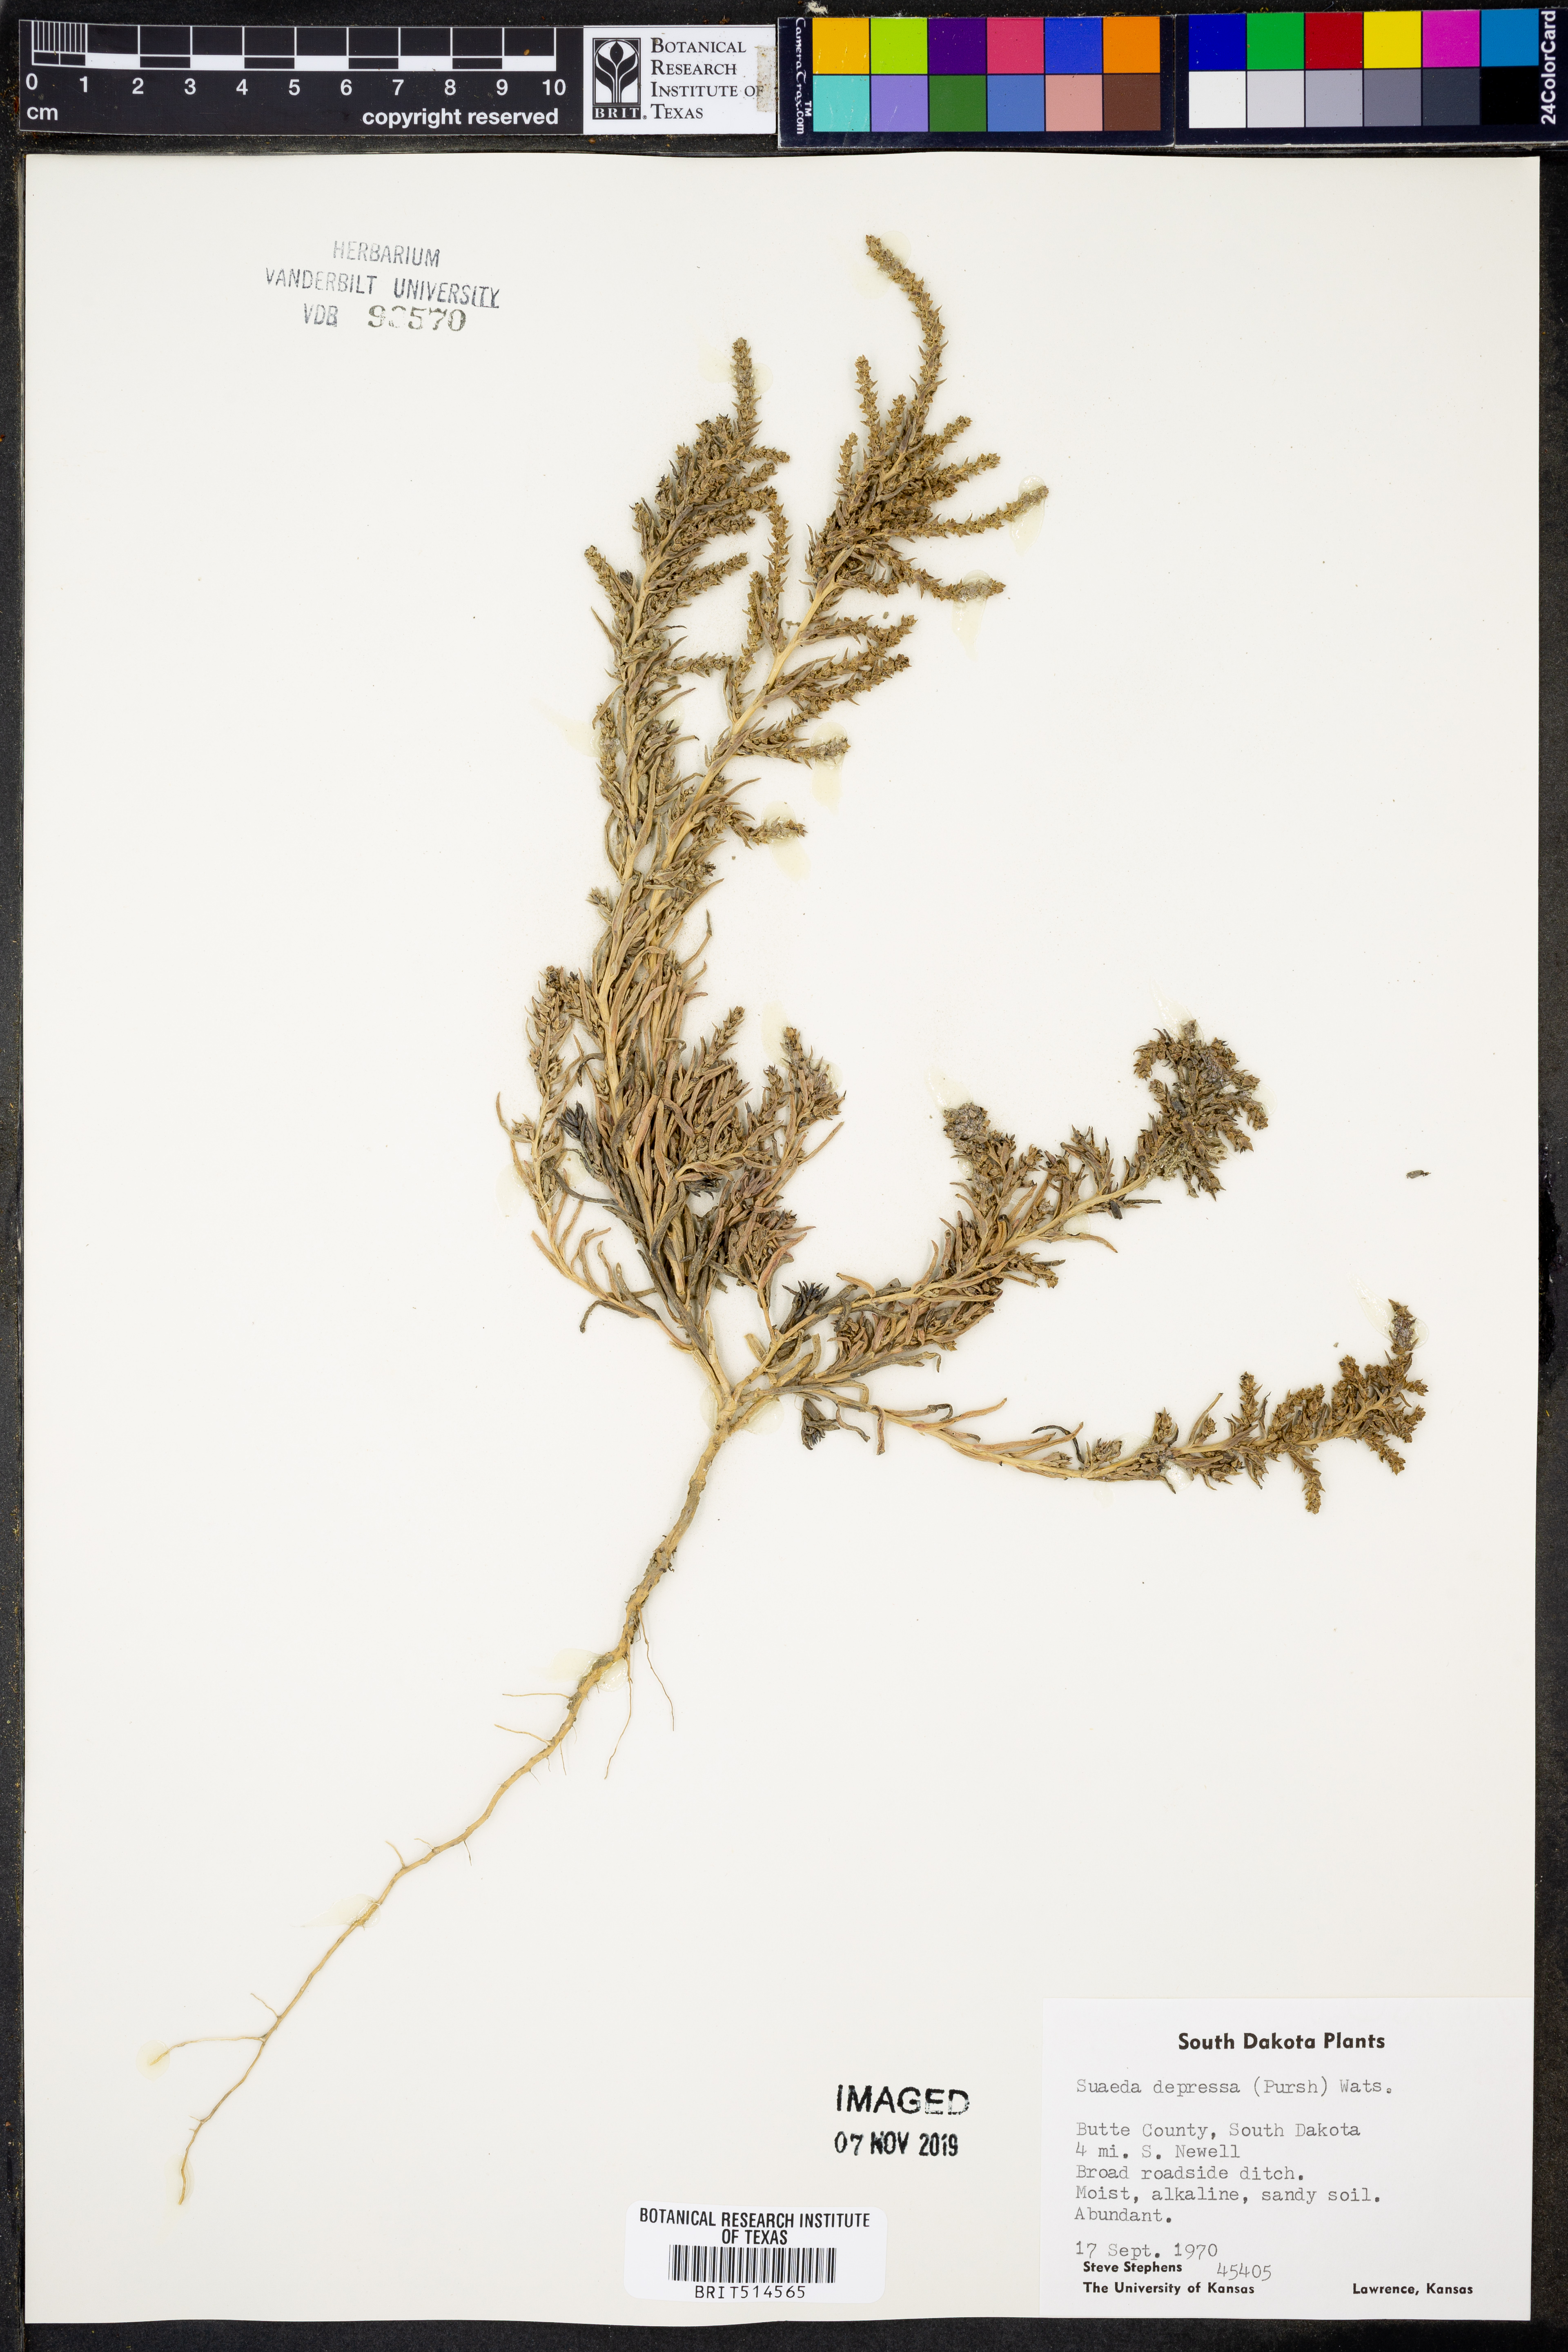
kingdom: Plantae
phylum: Tracheophyta
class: Magnoliopsida
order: Caryophyllales
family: Amaranthaceae
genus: Suaeda
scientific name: Suaeda calceoliformis
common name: Pursh's seepweed
